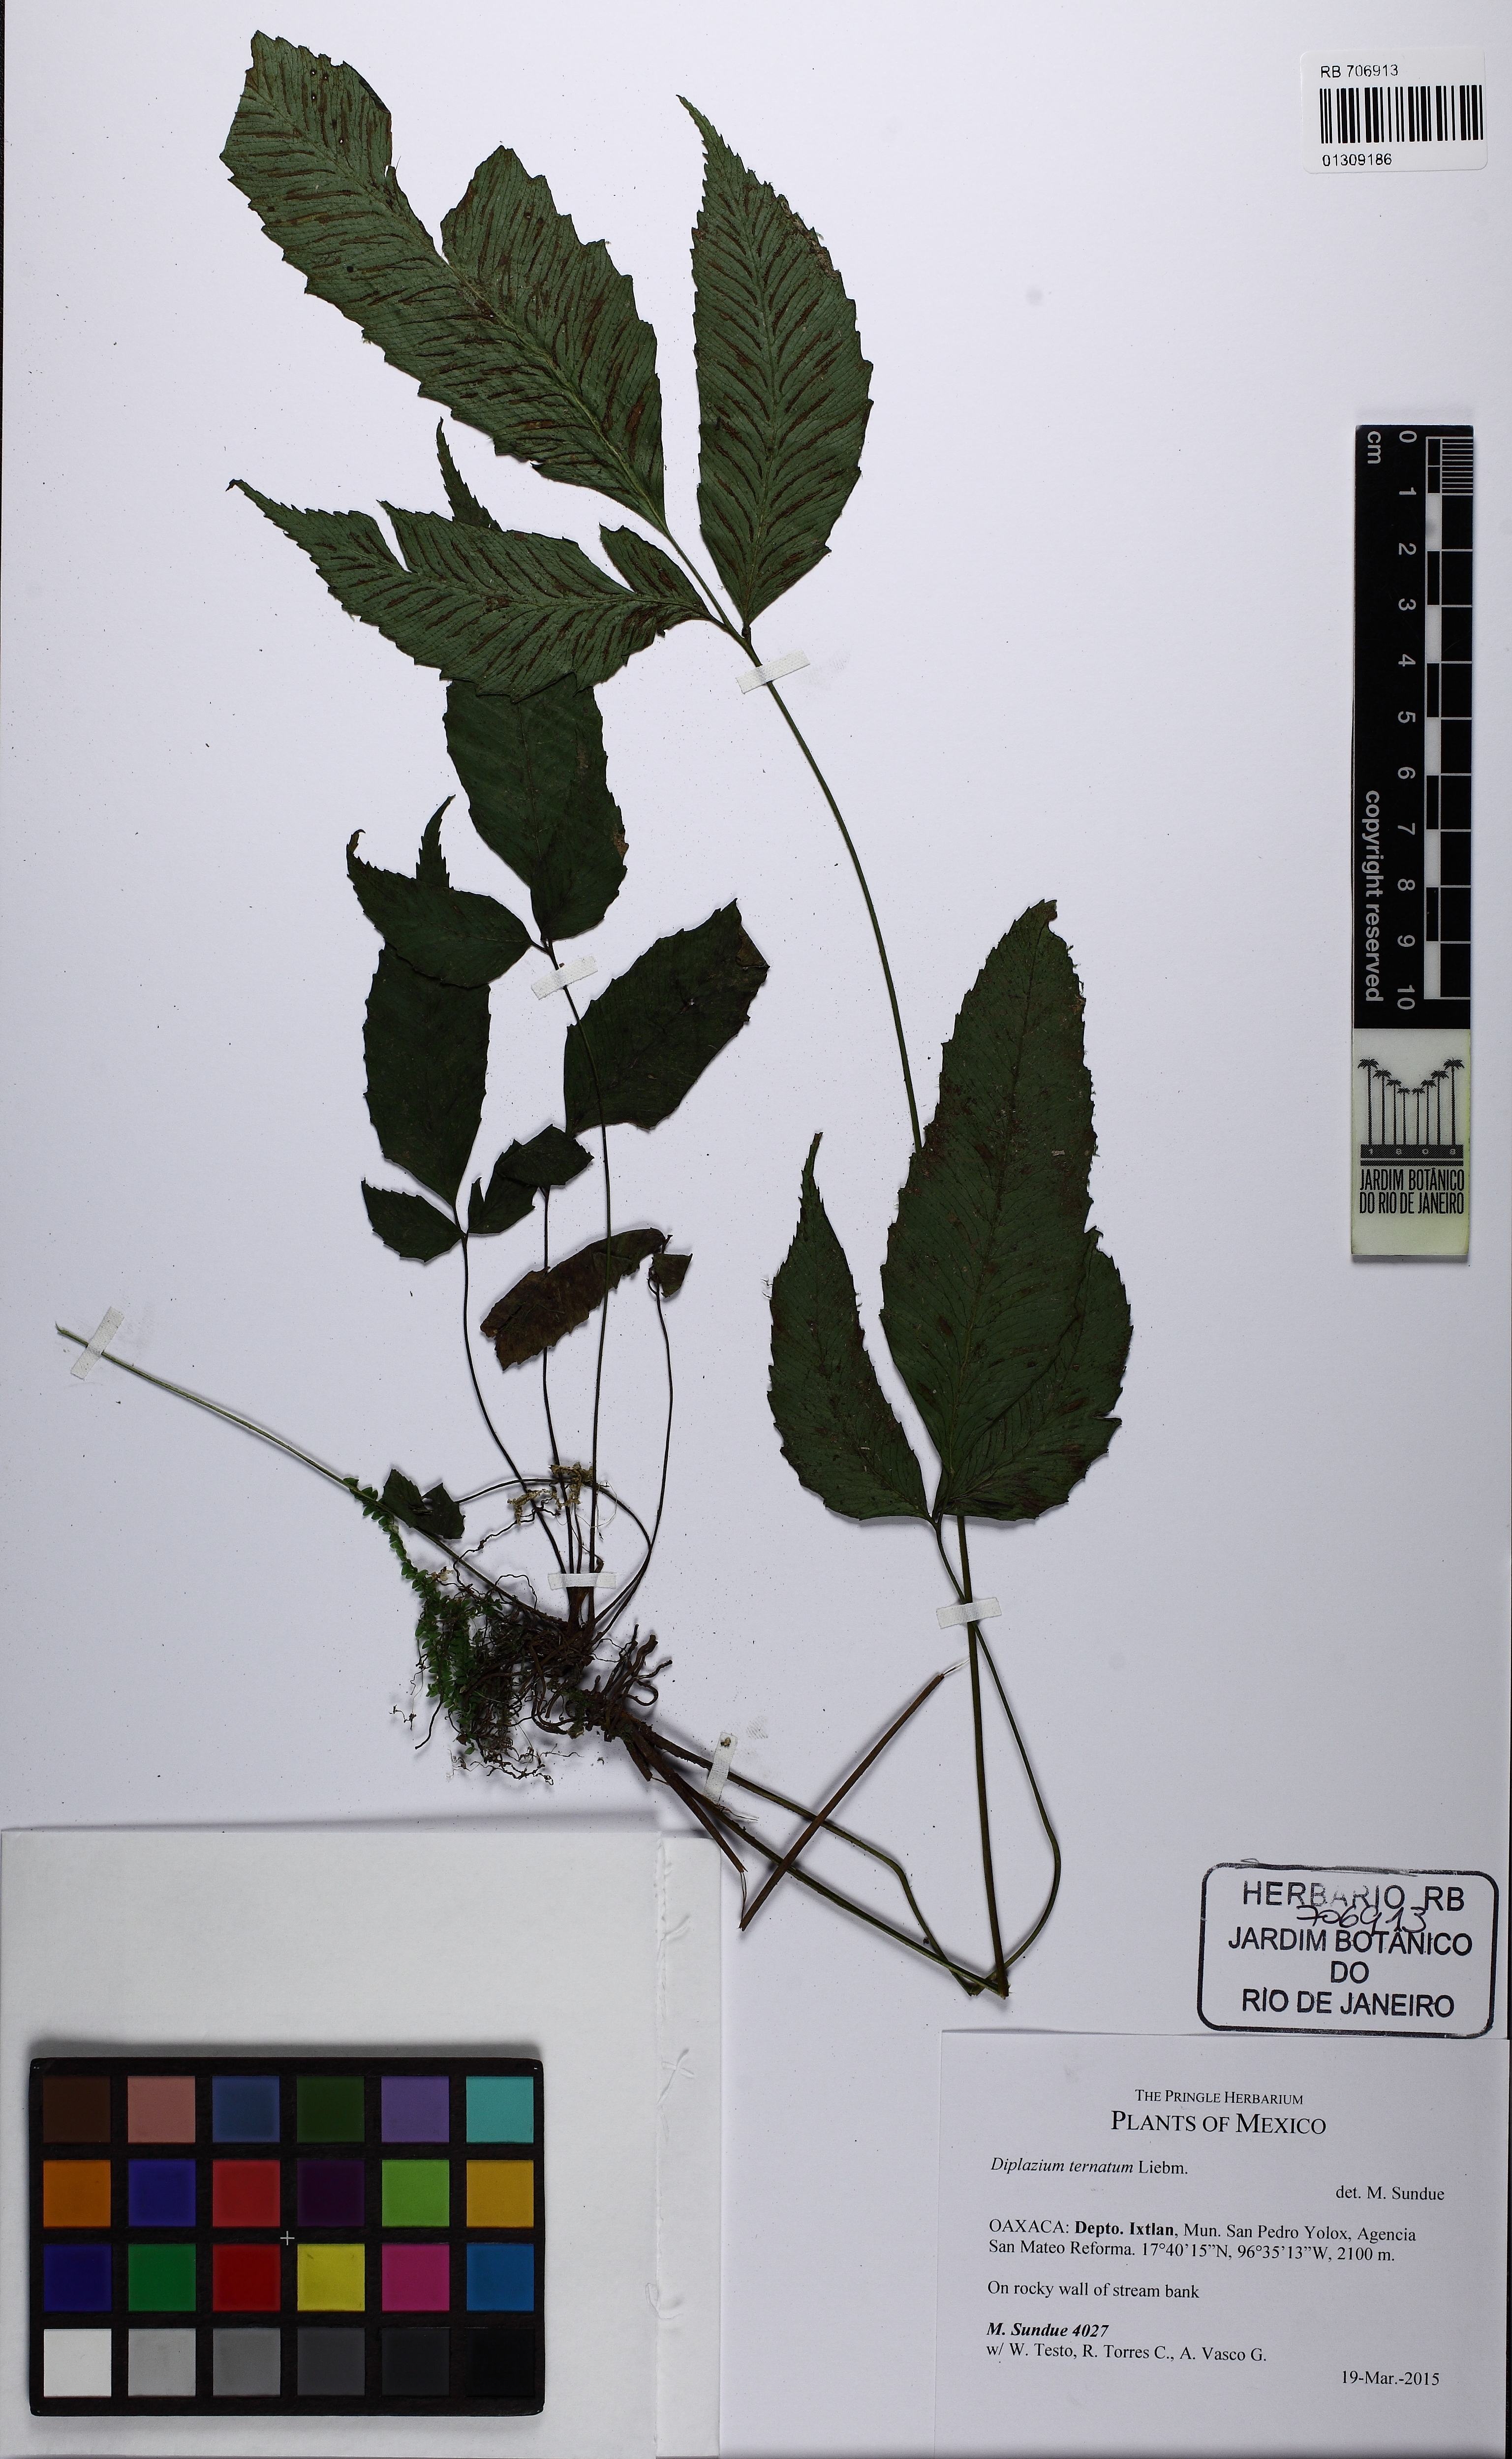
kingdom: Plantae
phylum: Tracheophyta
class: Polypodiopsida
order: Polypodiales
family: Athyriaceae
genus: Diplazium
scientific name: Diplazium ternatum
